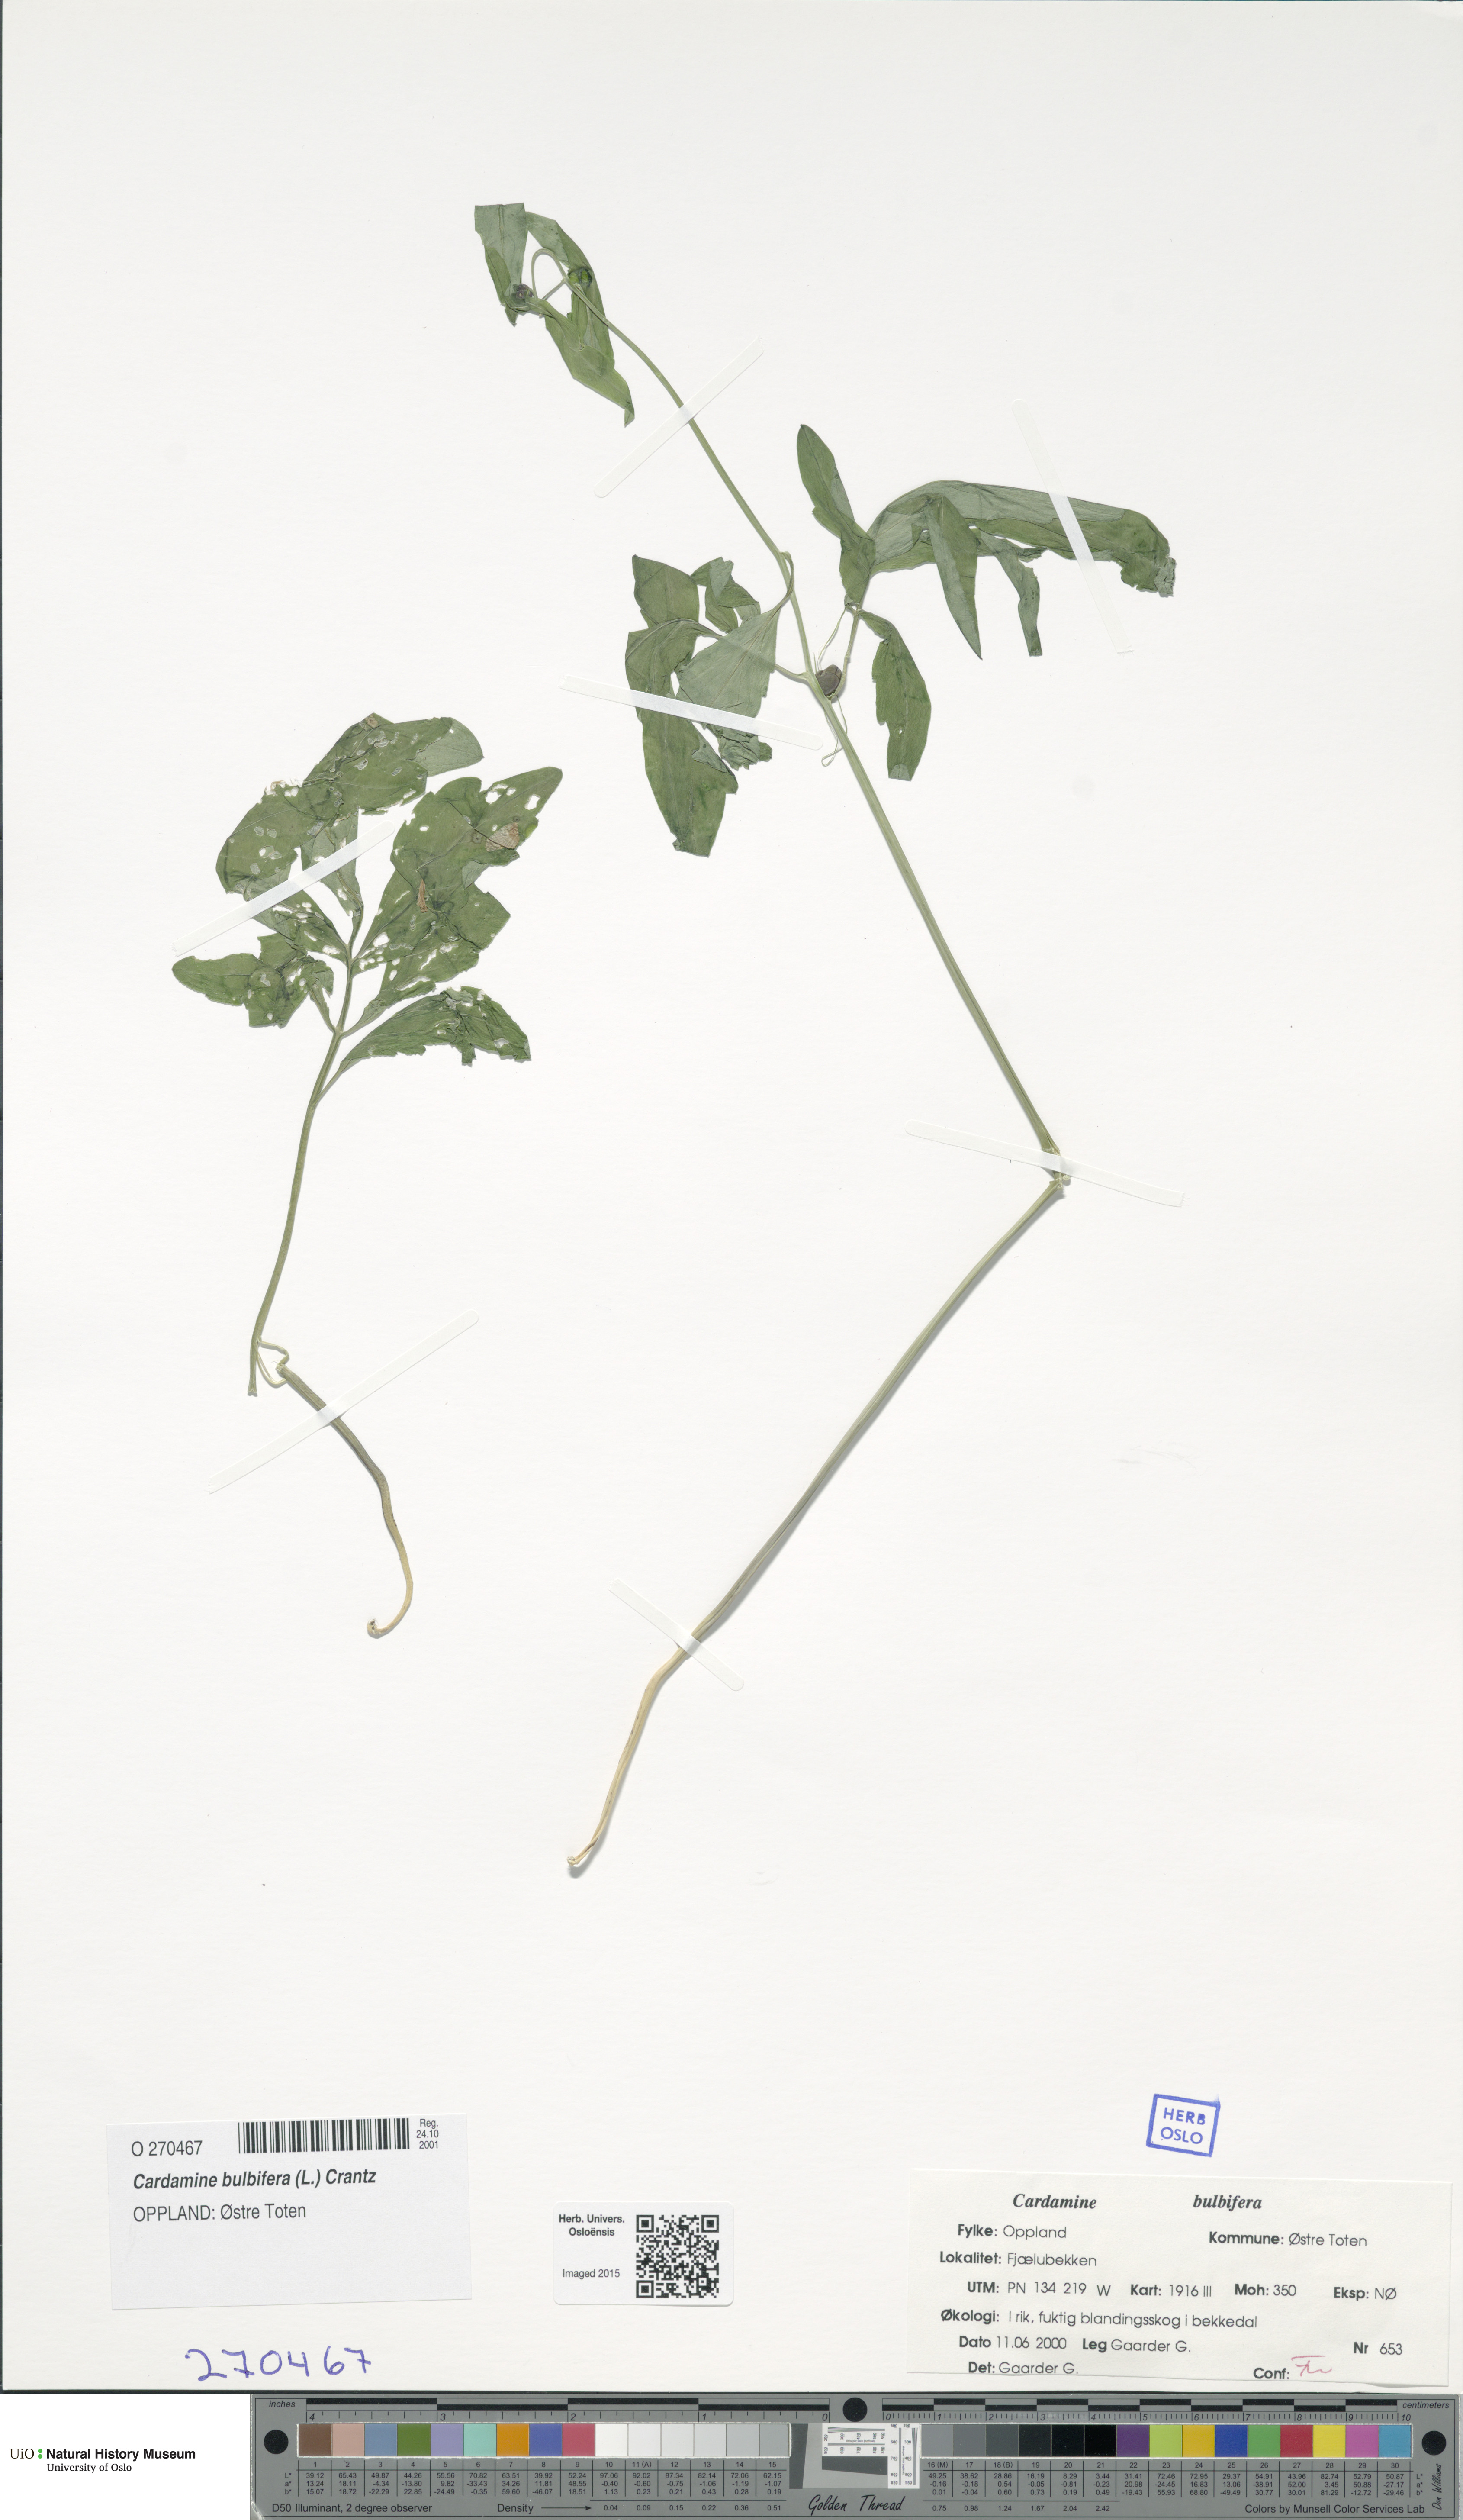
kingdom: Plantae
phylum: Tracheophyta
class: Magnoliopsida
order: Brassicales
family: Brassicaceae
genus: Cardamine
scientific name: Cardamine bulbifera
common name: Coralroot bittercress
